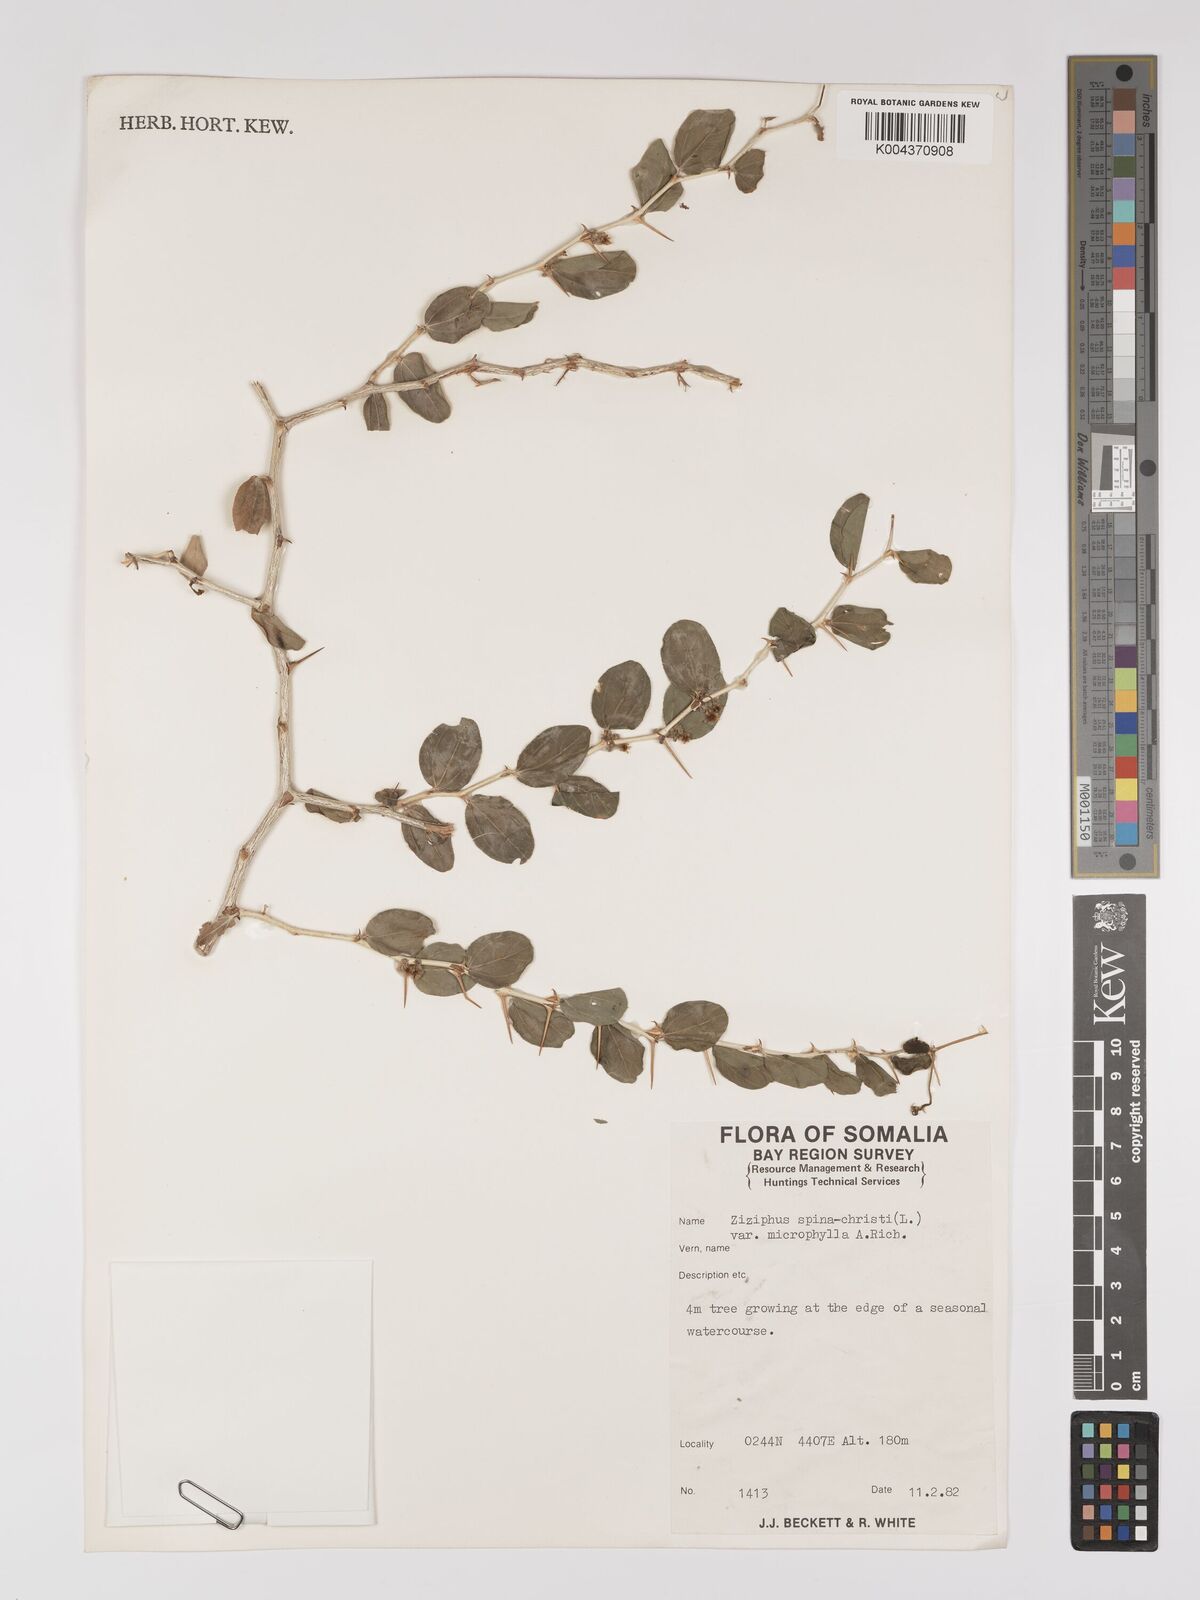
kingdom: Plantae
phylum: Tracheophyta
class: Magnoliopsida
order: Rosales
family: Rhamnaceae
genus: Ziziphus
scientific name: Ziziphus spina-christi
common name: Syrian christ-thorn
